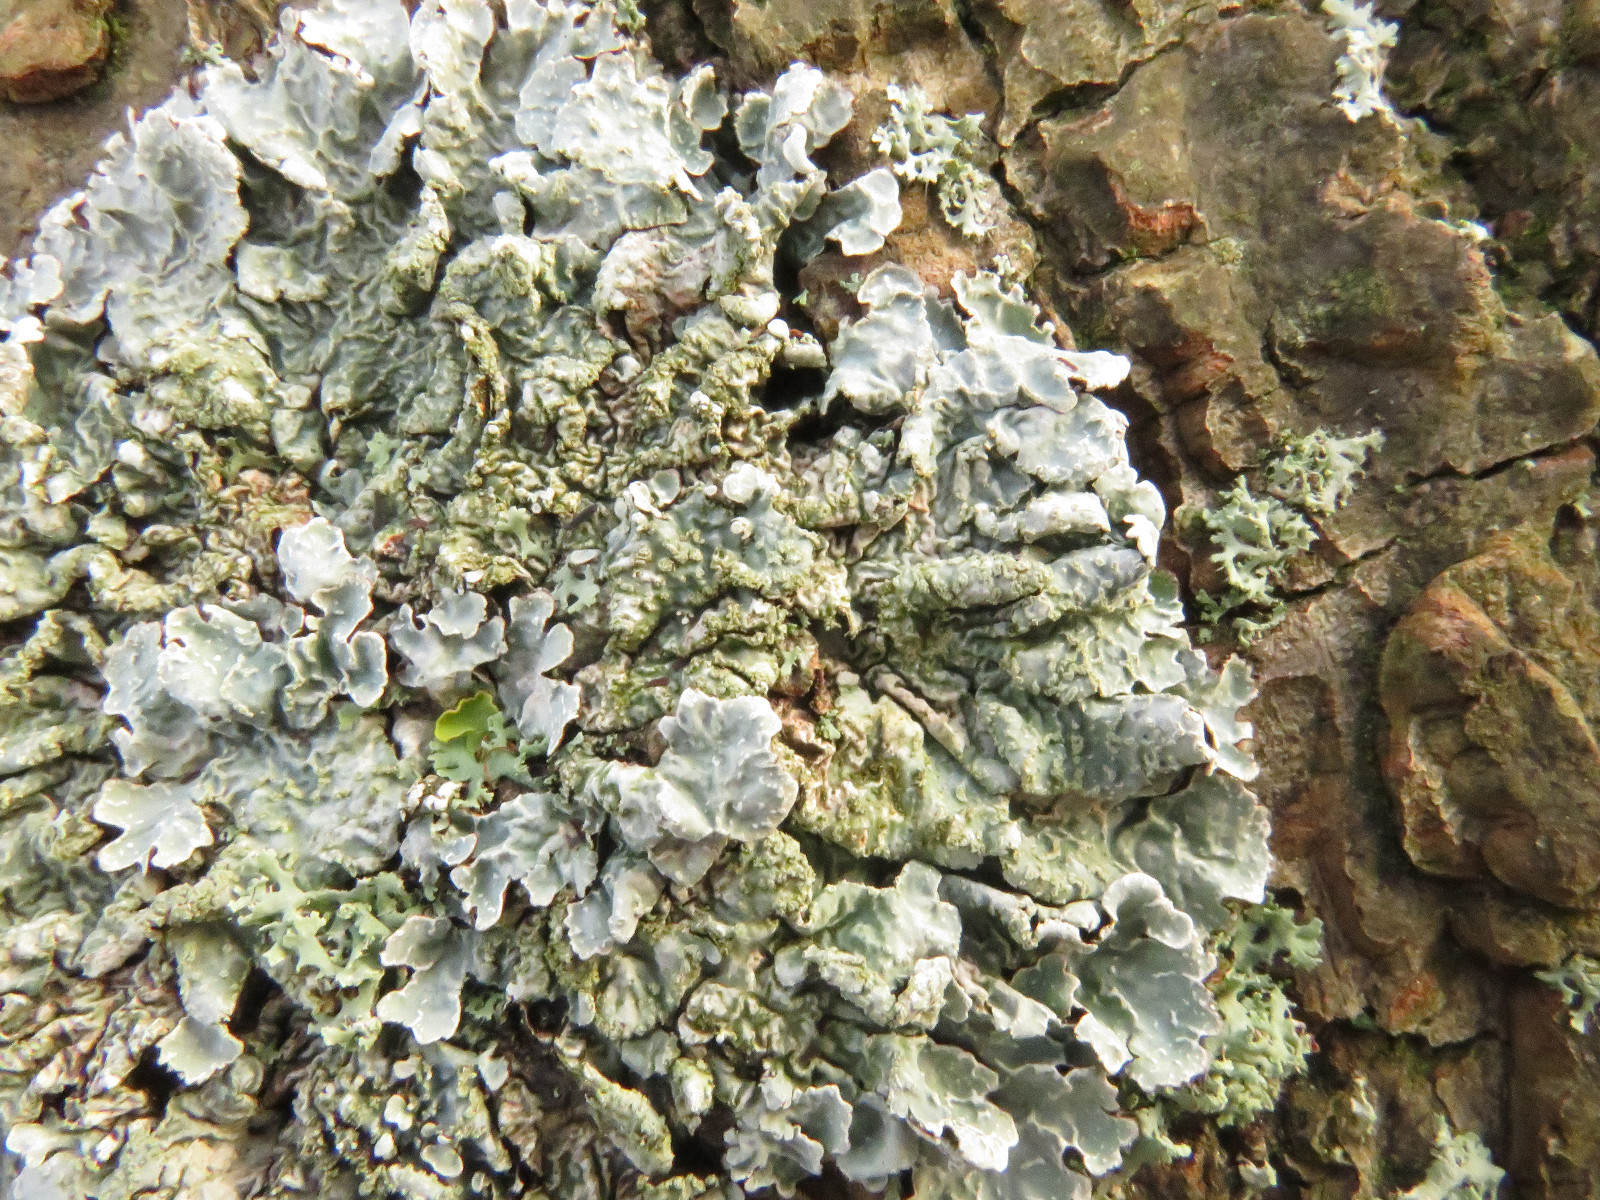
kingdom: Fungi
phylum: Ascomycota
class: Lecanoromycetes
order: Lecanorales
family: Parmeliaceae
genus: Parmelia
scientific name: Parmelia sulcata
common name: rynket skållav
